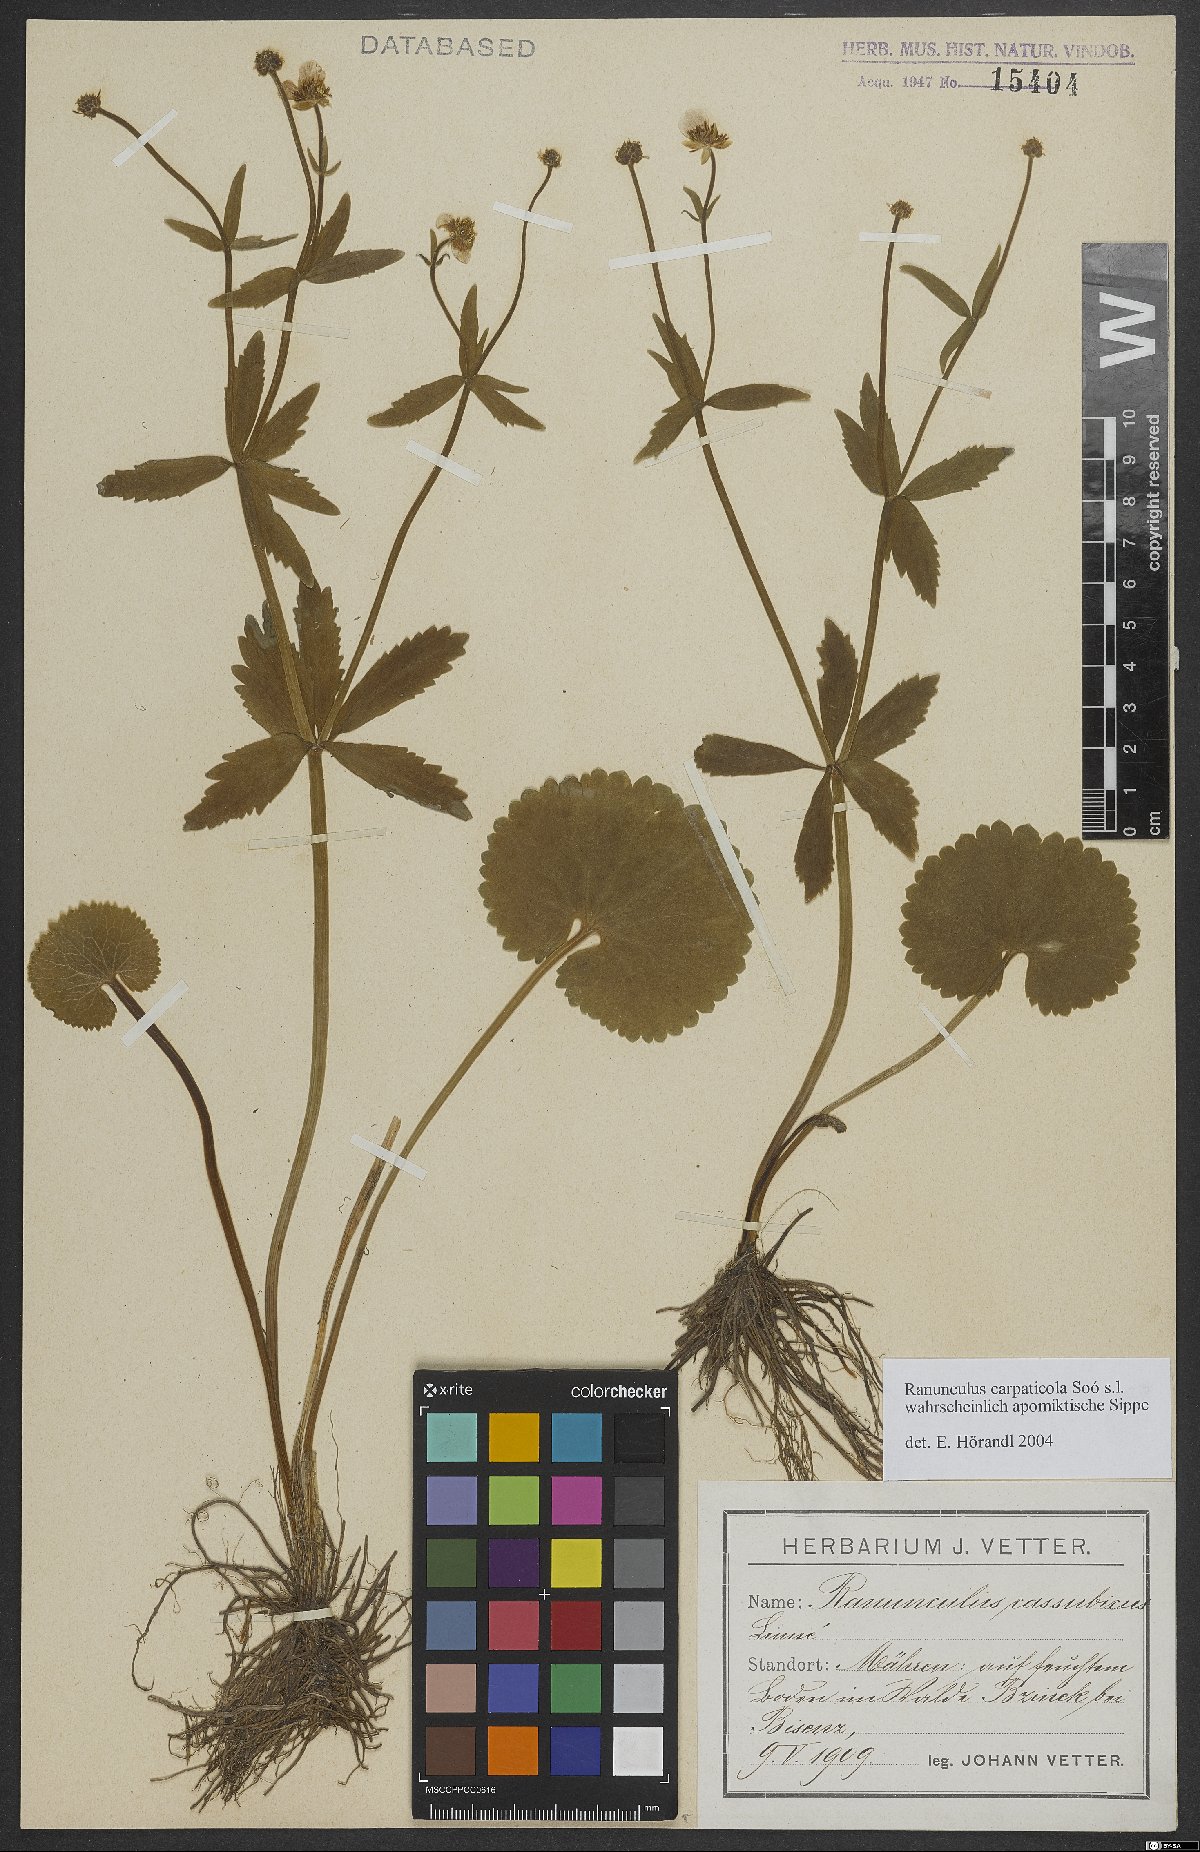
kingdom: Plantae
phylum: Tracheophyta
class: Magnoliopsida
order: Ranunculales
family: Ranunculaceae
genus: Ranunculus
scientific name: Ranunculus cassubicifolius
